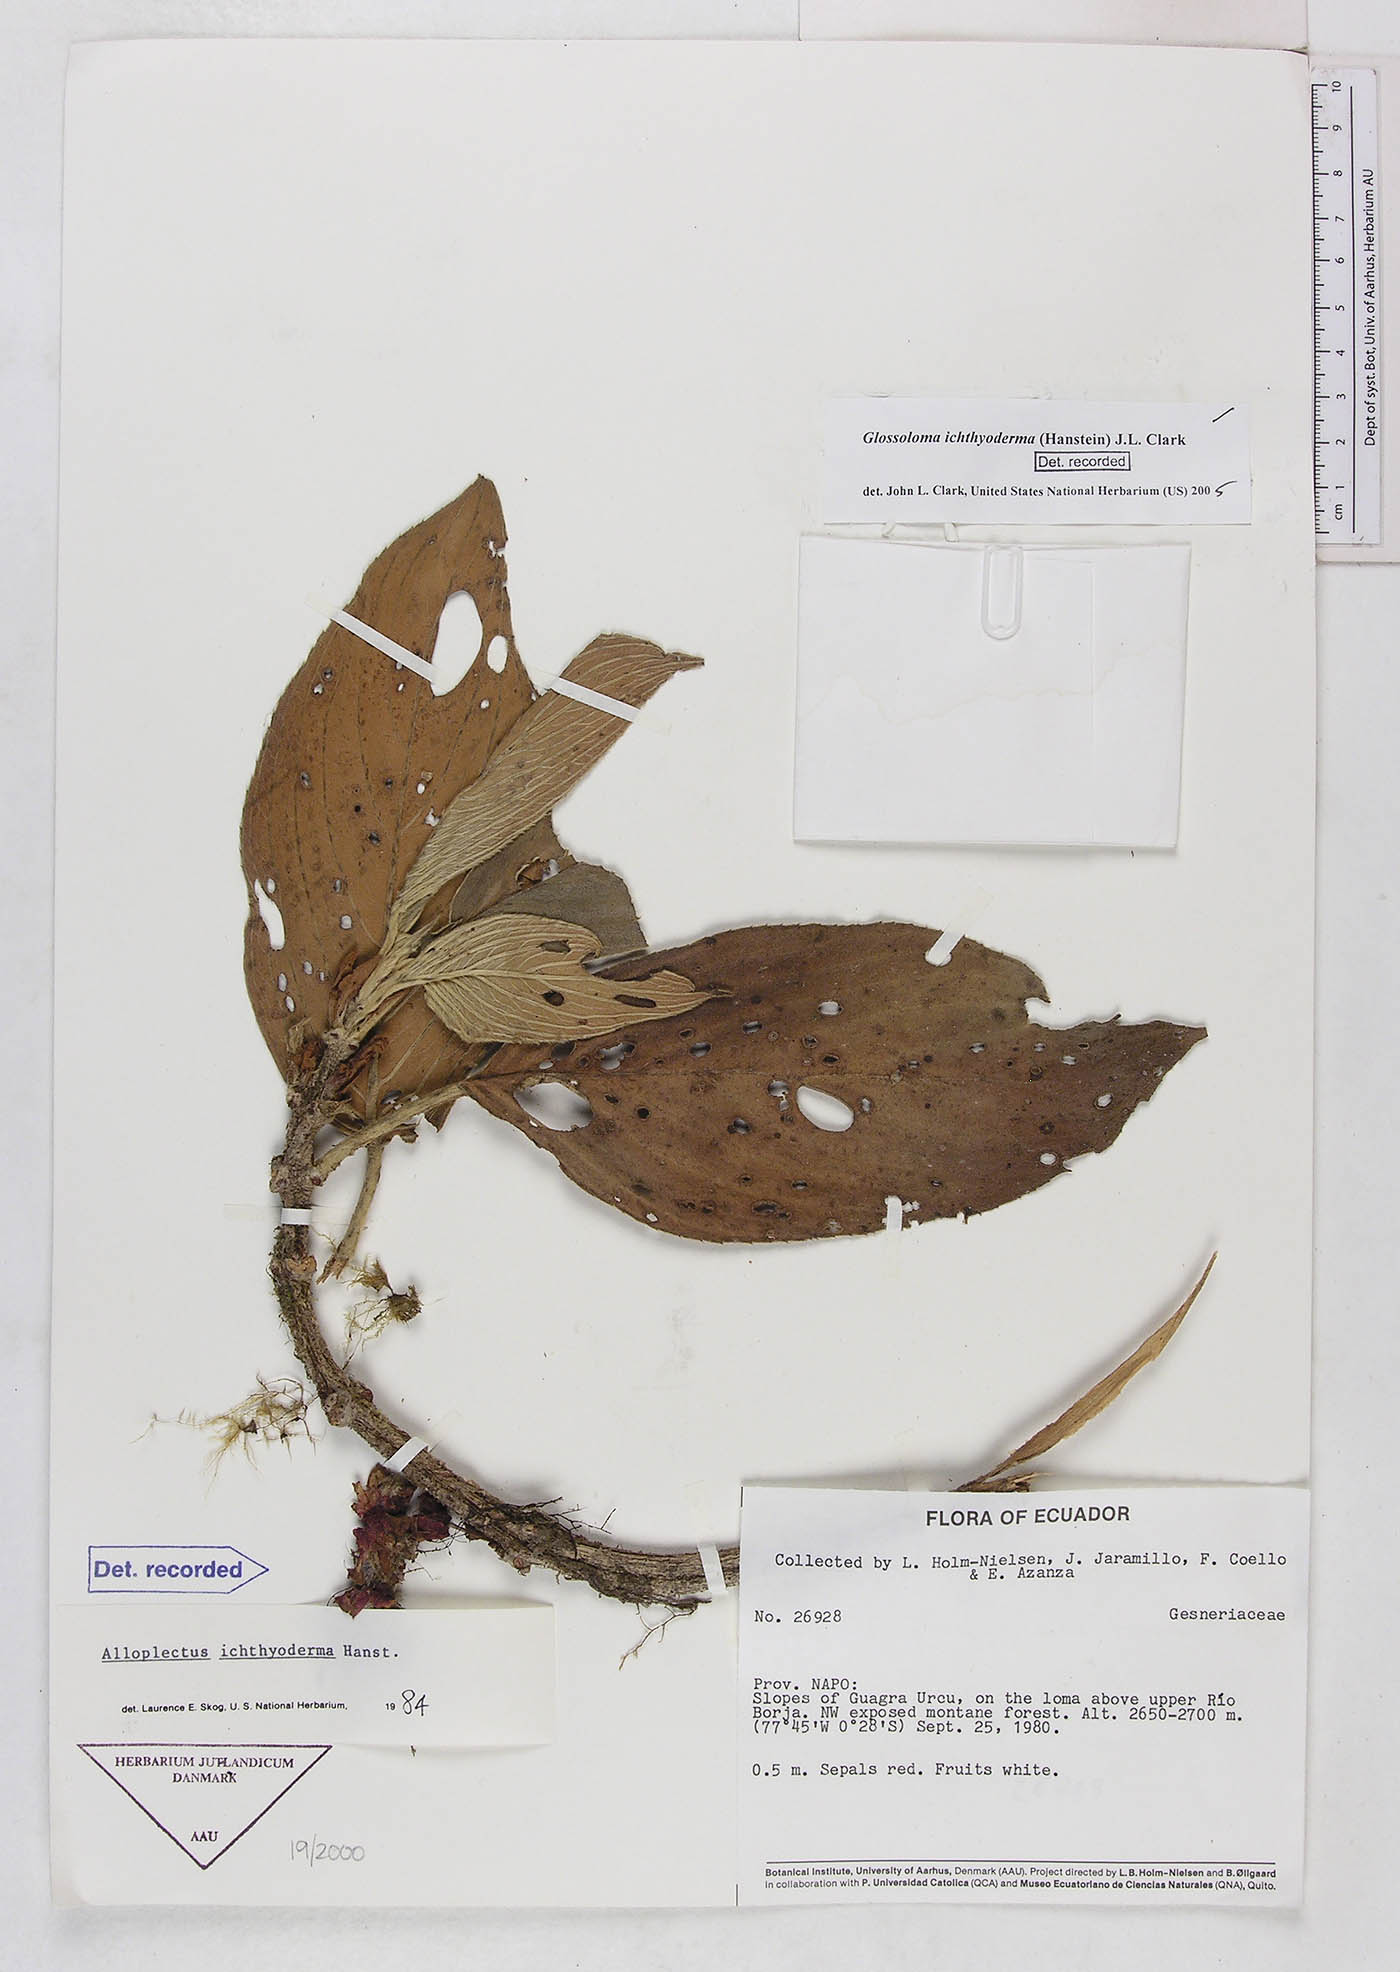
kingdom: Plantae
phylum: Tracheophyta
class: Magnoliopsida
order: Lamiales
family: Gesneriaceae
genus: Glossoloma
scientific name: Glossoloma ichthyoderma
